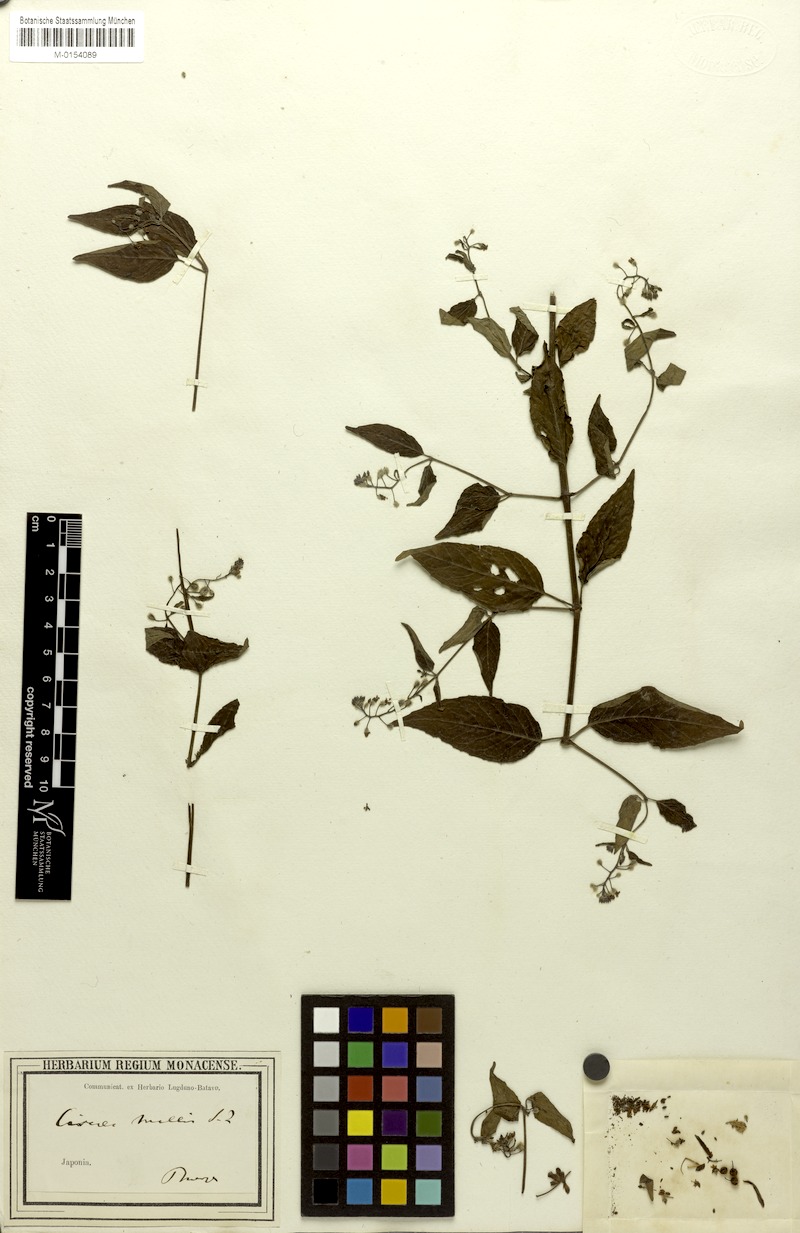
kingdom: Plantae
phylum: Tracheophyta
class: Magnoliopsida
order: Myrtales
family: Onagraceae
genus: Circaea
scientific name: Circaea mollis
